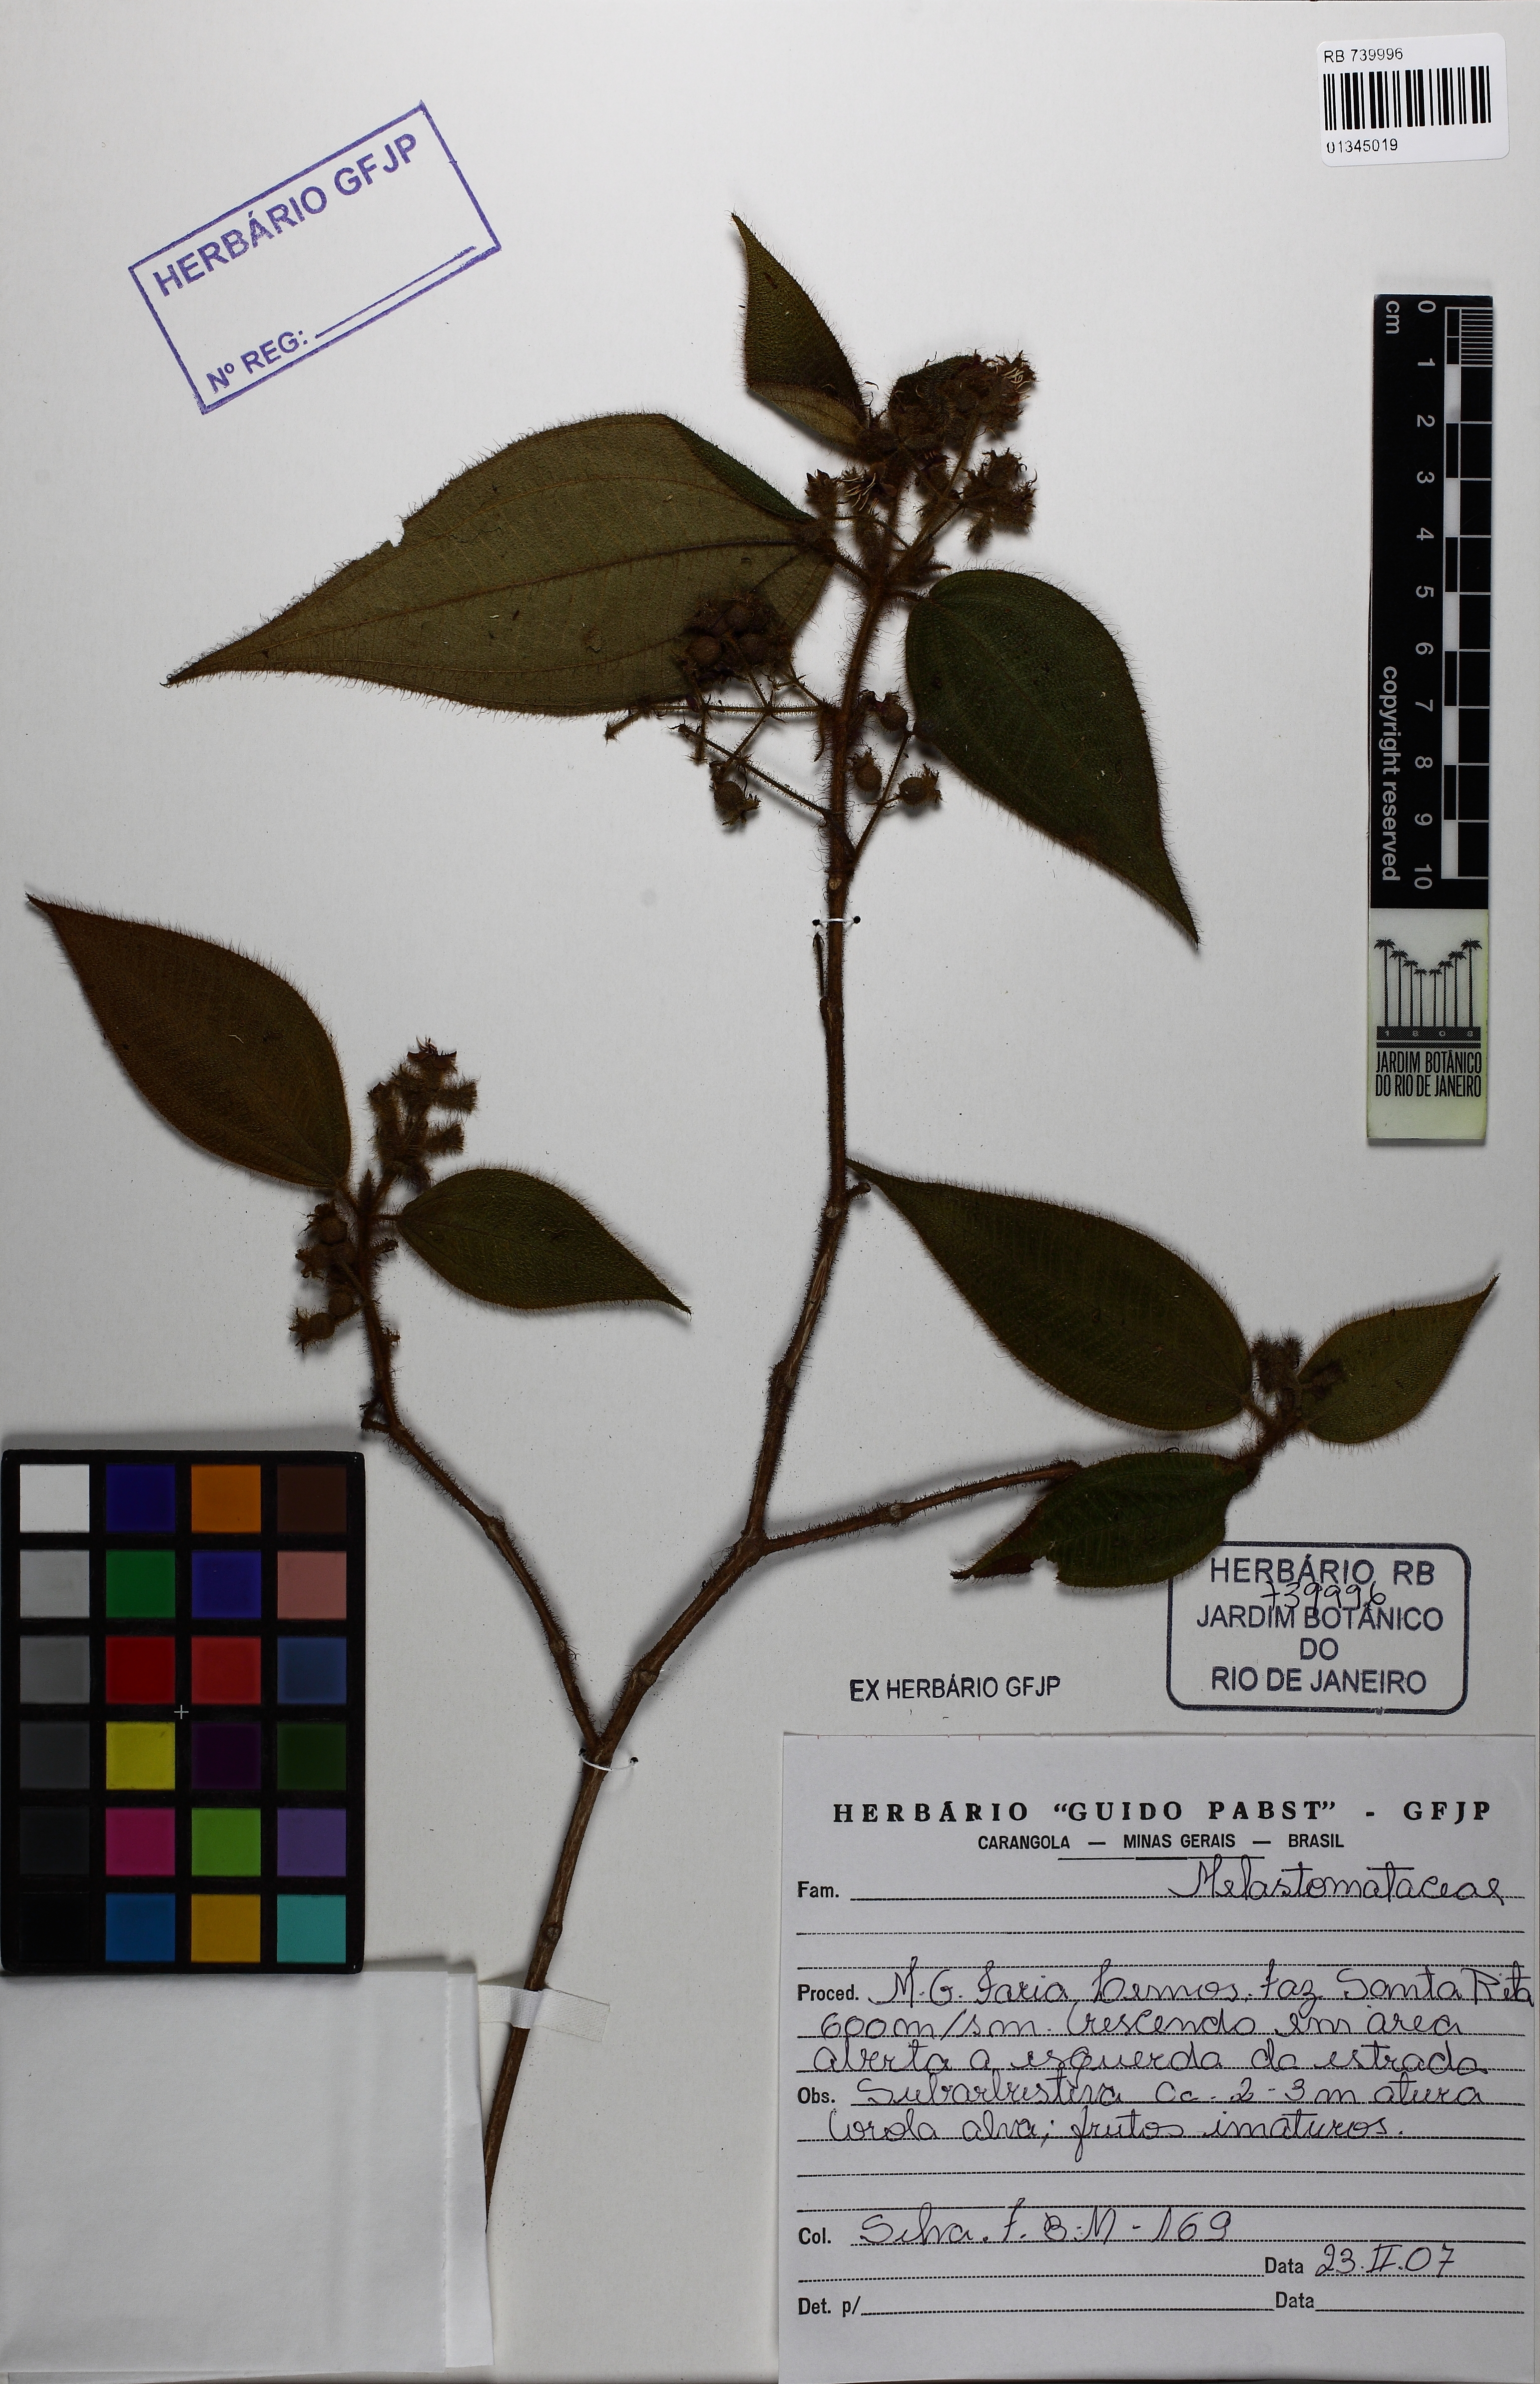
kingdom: Plantae
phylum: Tracheophyta
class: Magnoliopsida
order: Myrtales
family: Melastomataceae
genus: Miconia
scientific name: Miconia neourceolata
